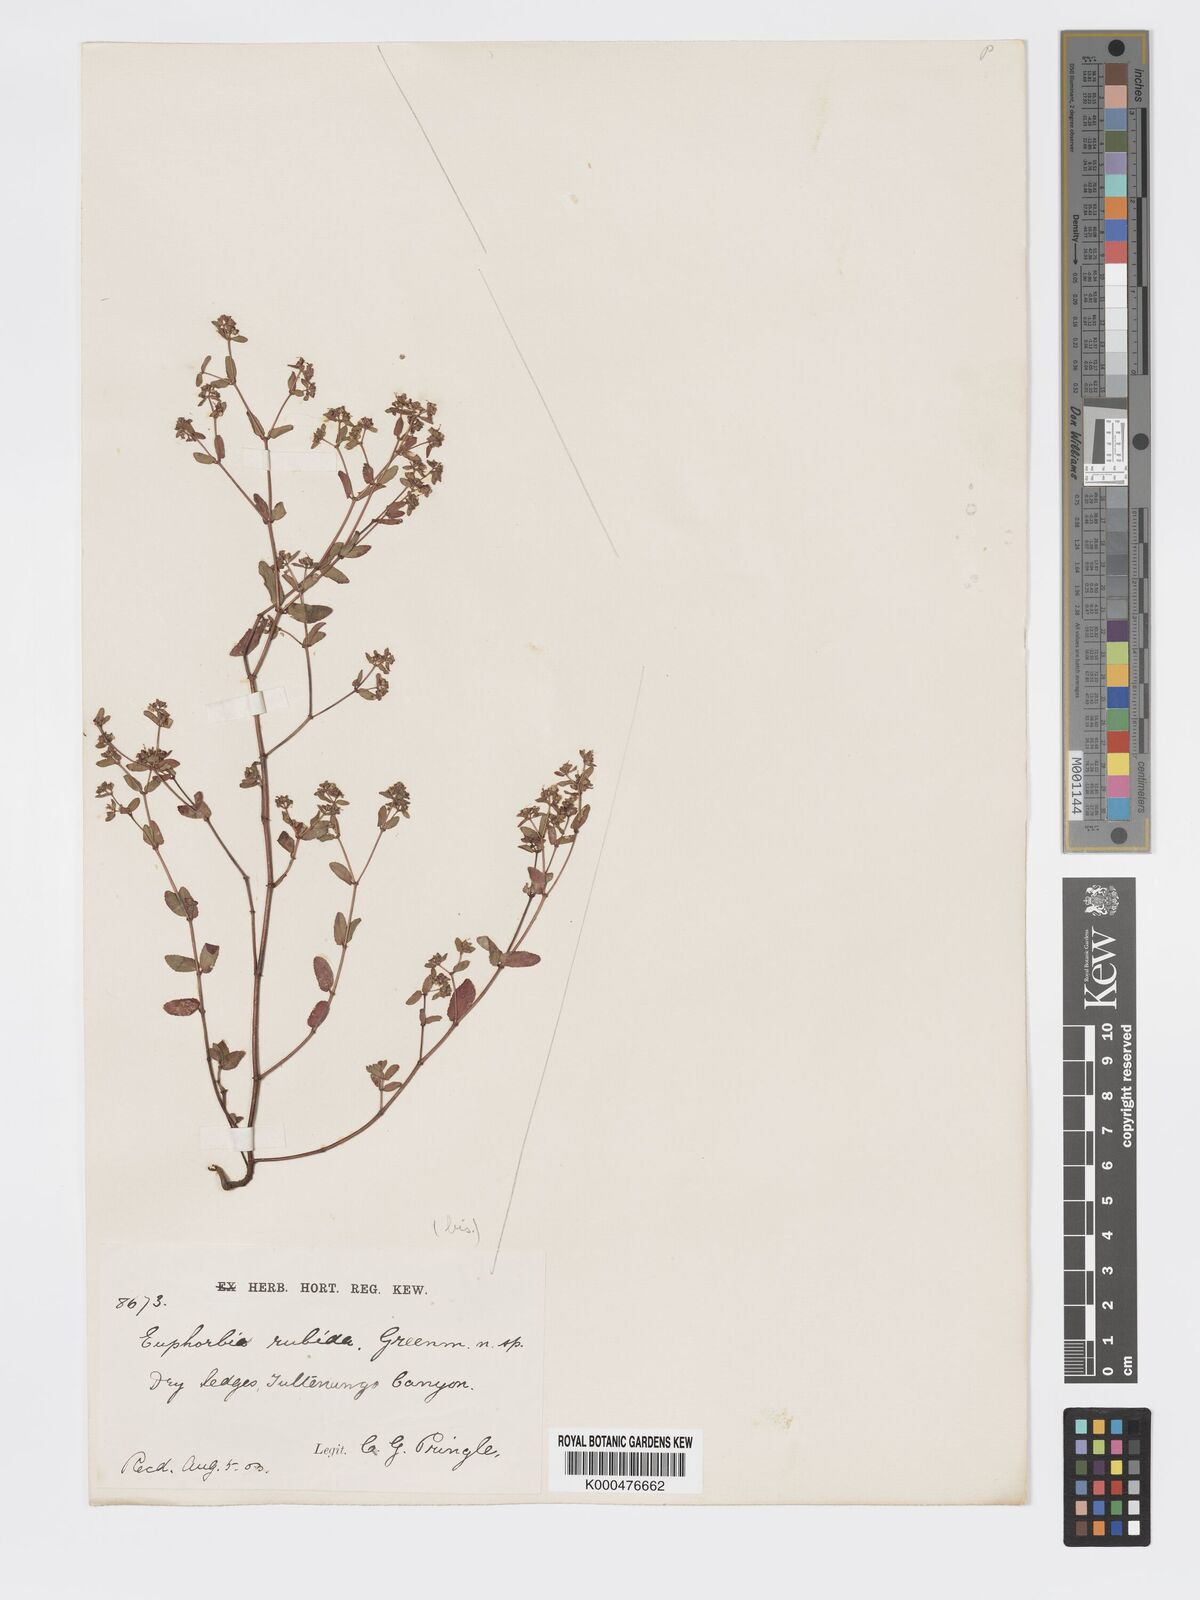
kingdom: Plantae
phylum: Tracheophyta
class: Magnoliopsida
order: Malpighiales
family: Euphorbiaceae
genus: Euphorbia
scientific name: Euphorbia anychioides
